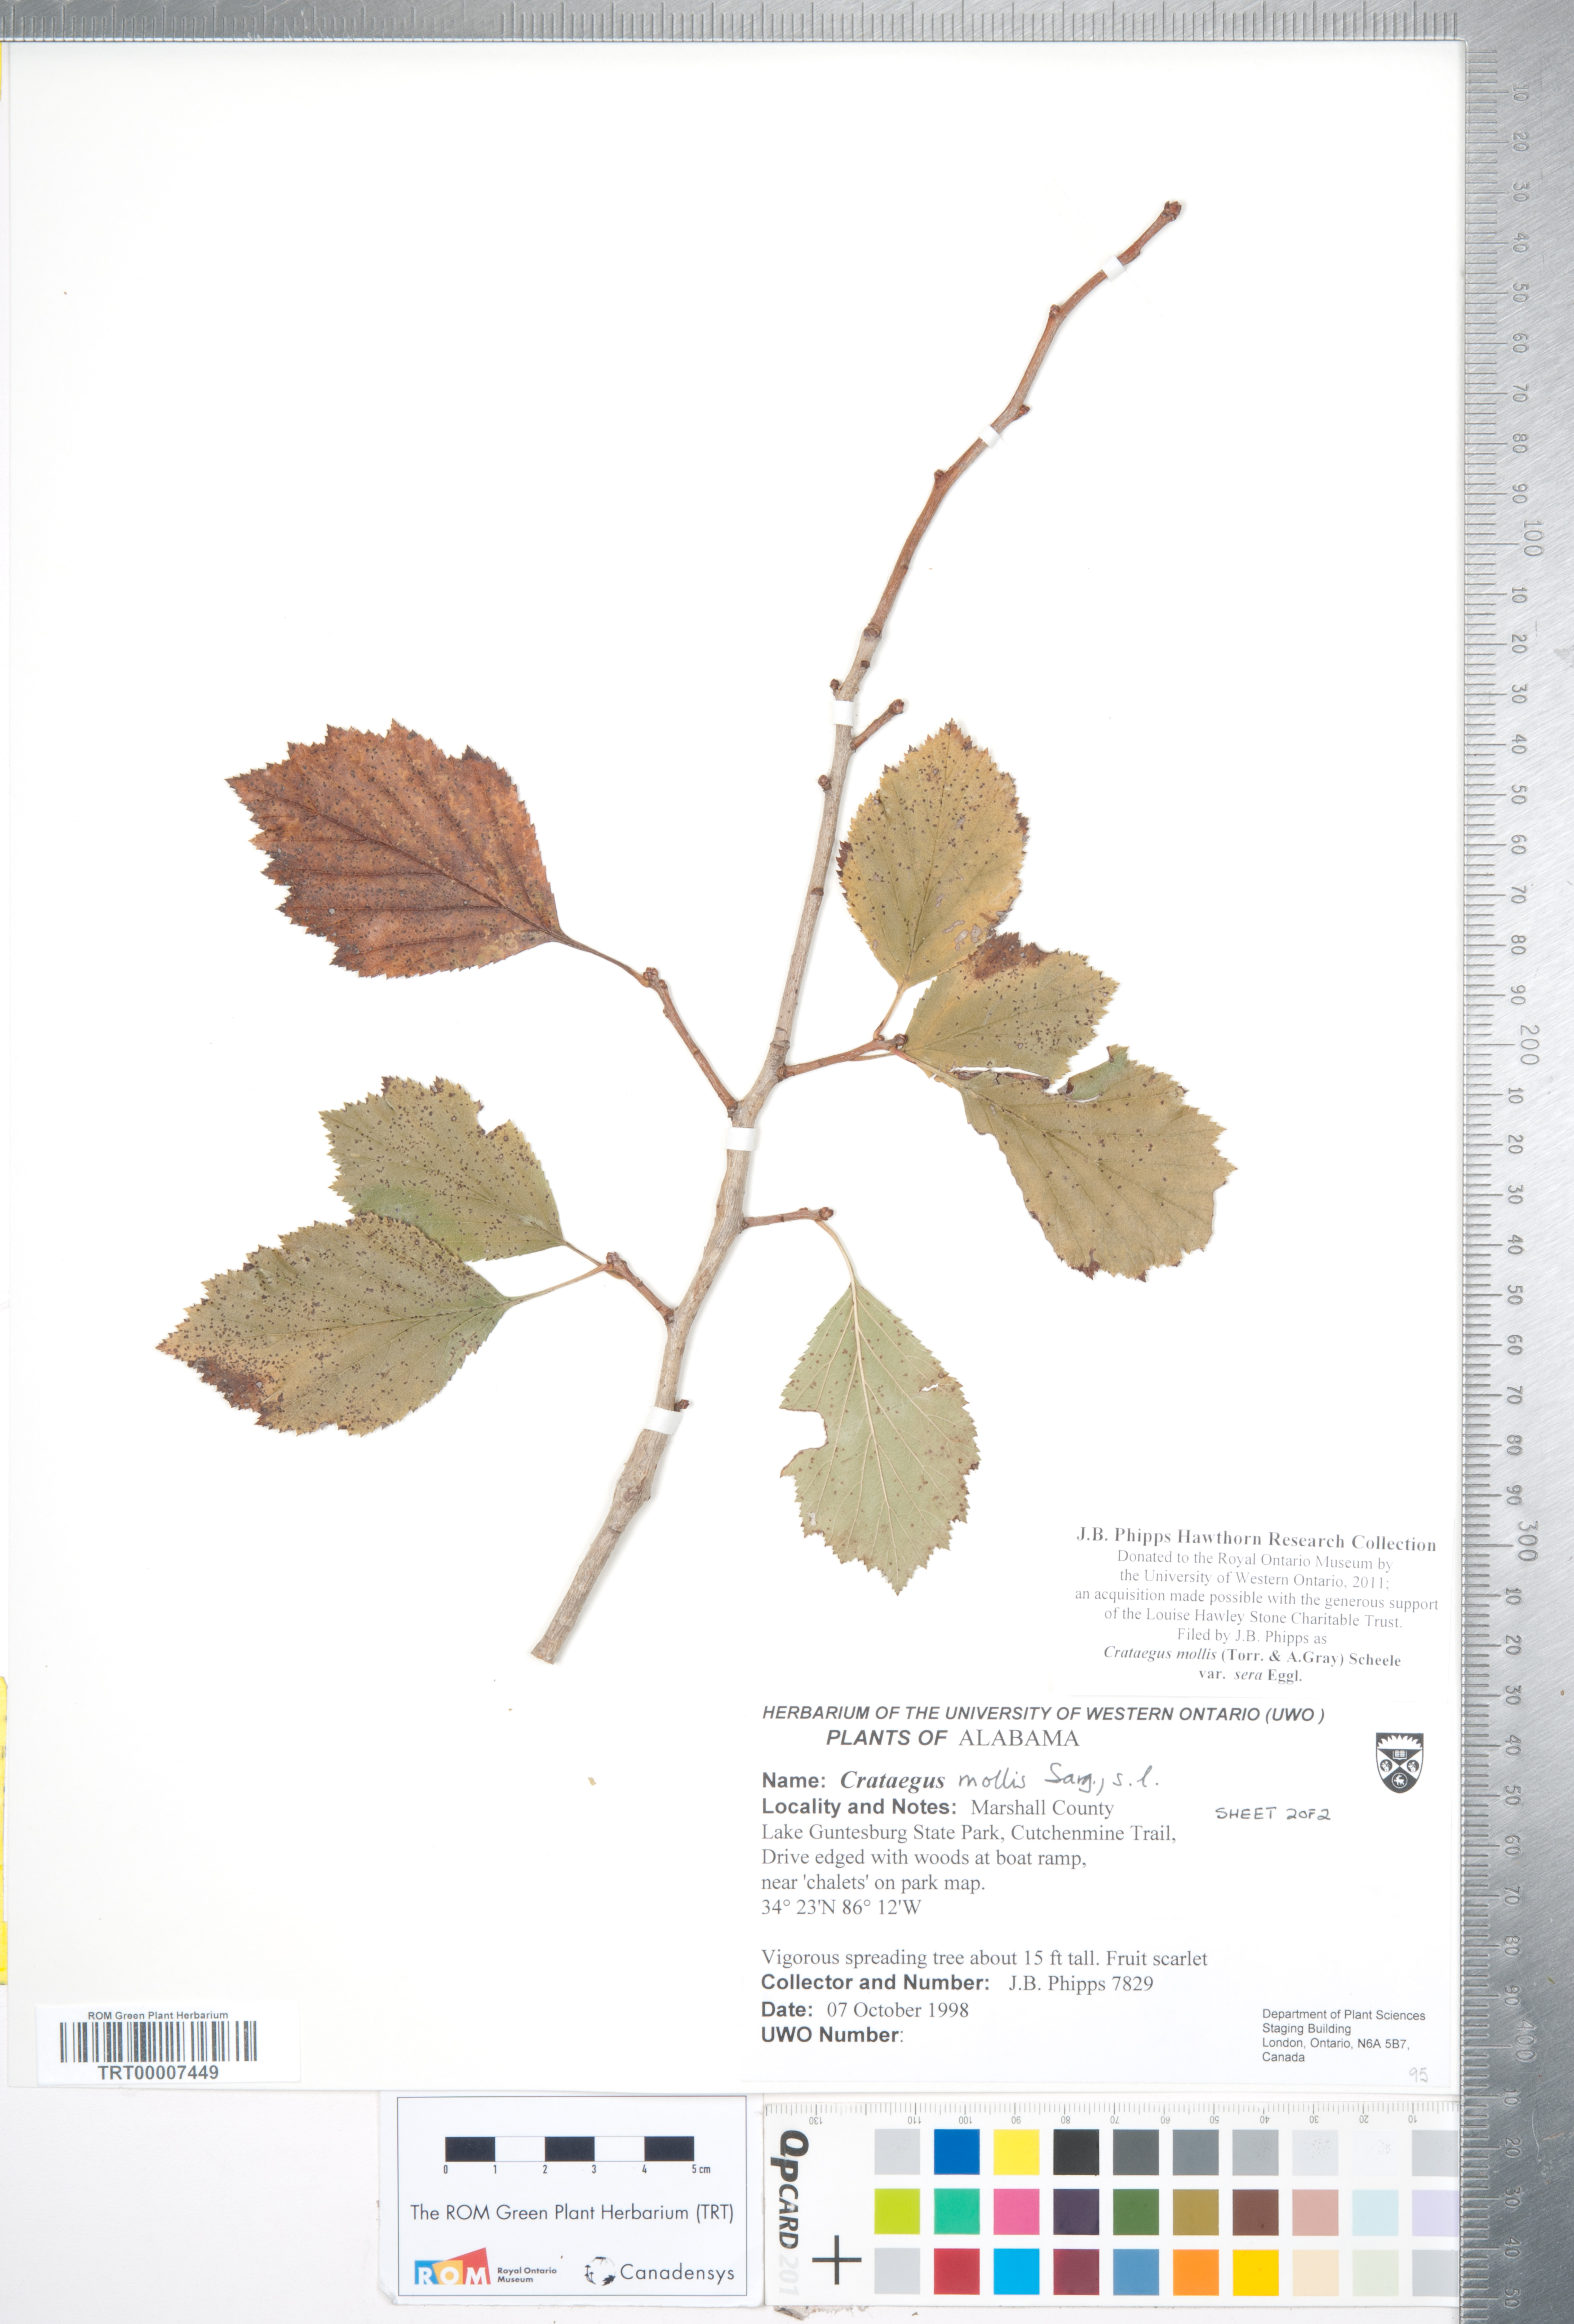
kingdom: Plantae
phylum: Tracheophyta
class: Magnoliopsida
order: Rosales
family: Rosaceae
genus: Crataegus
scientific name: Crataegus mollis
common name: Downy hawthorn
